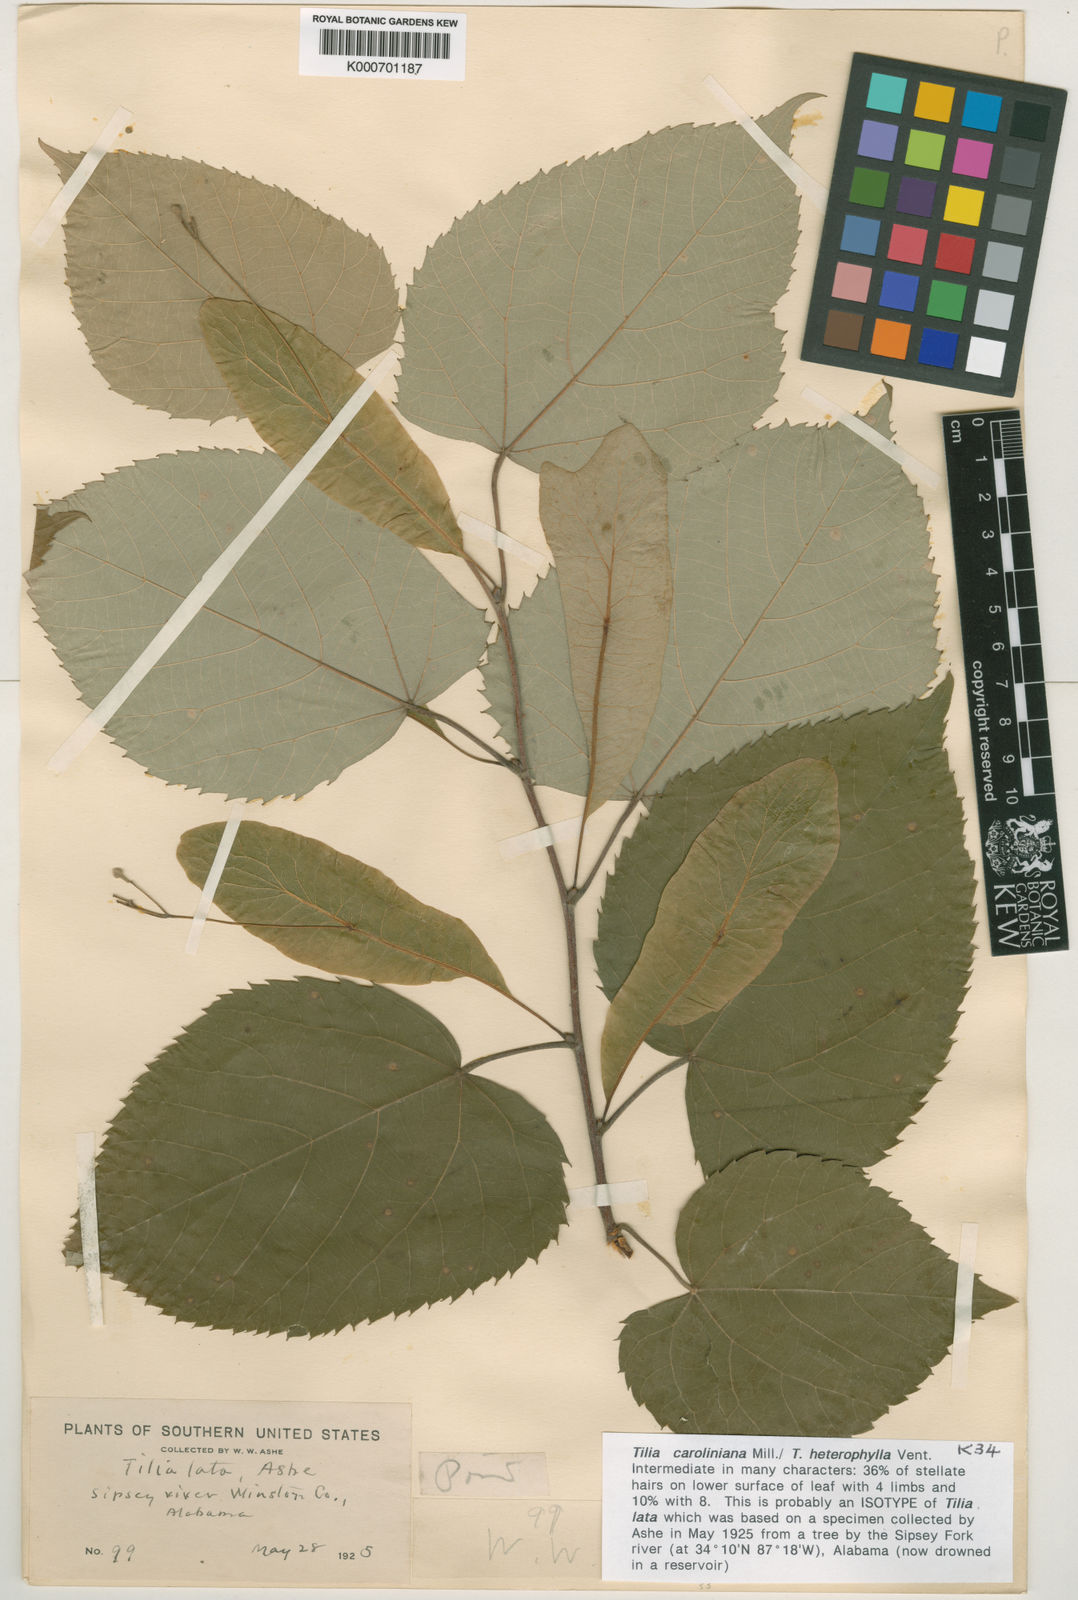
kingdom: Plantae
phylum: Tracheophyta
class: Magnoliopsida
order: Malvales
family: Malvaceae
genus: Tilia
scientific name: Tilia americana
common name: Basswood
